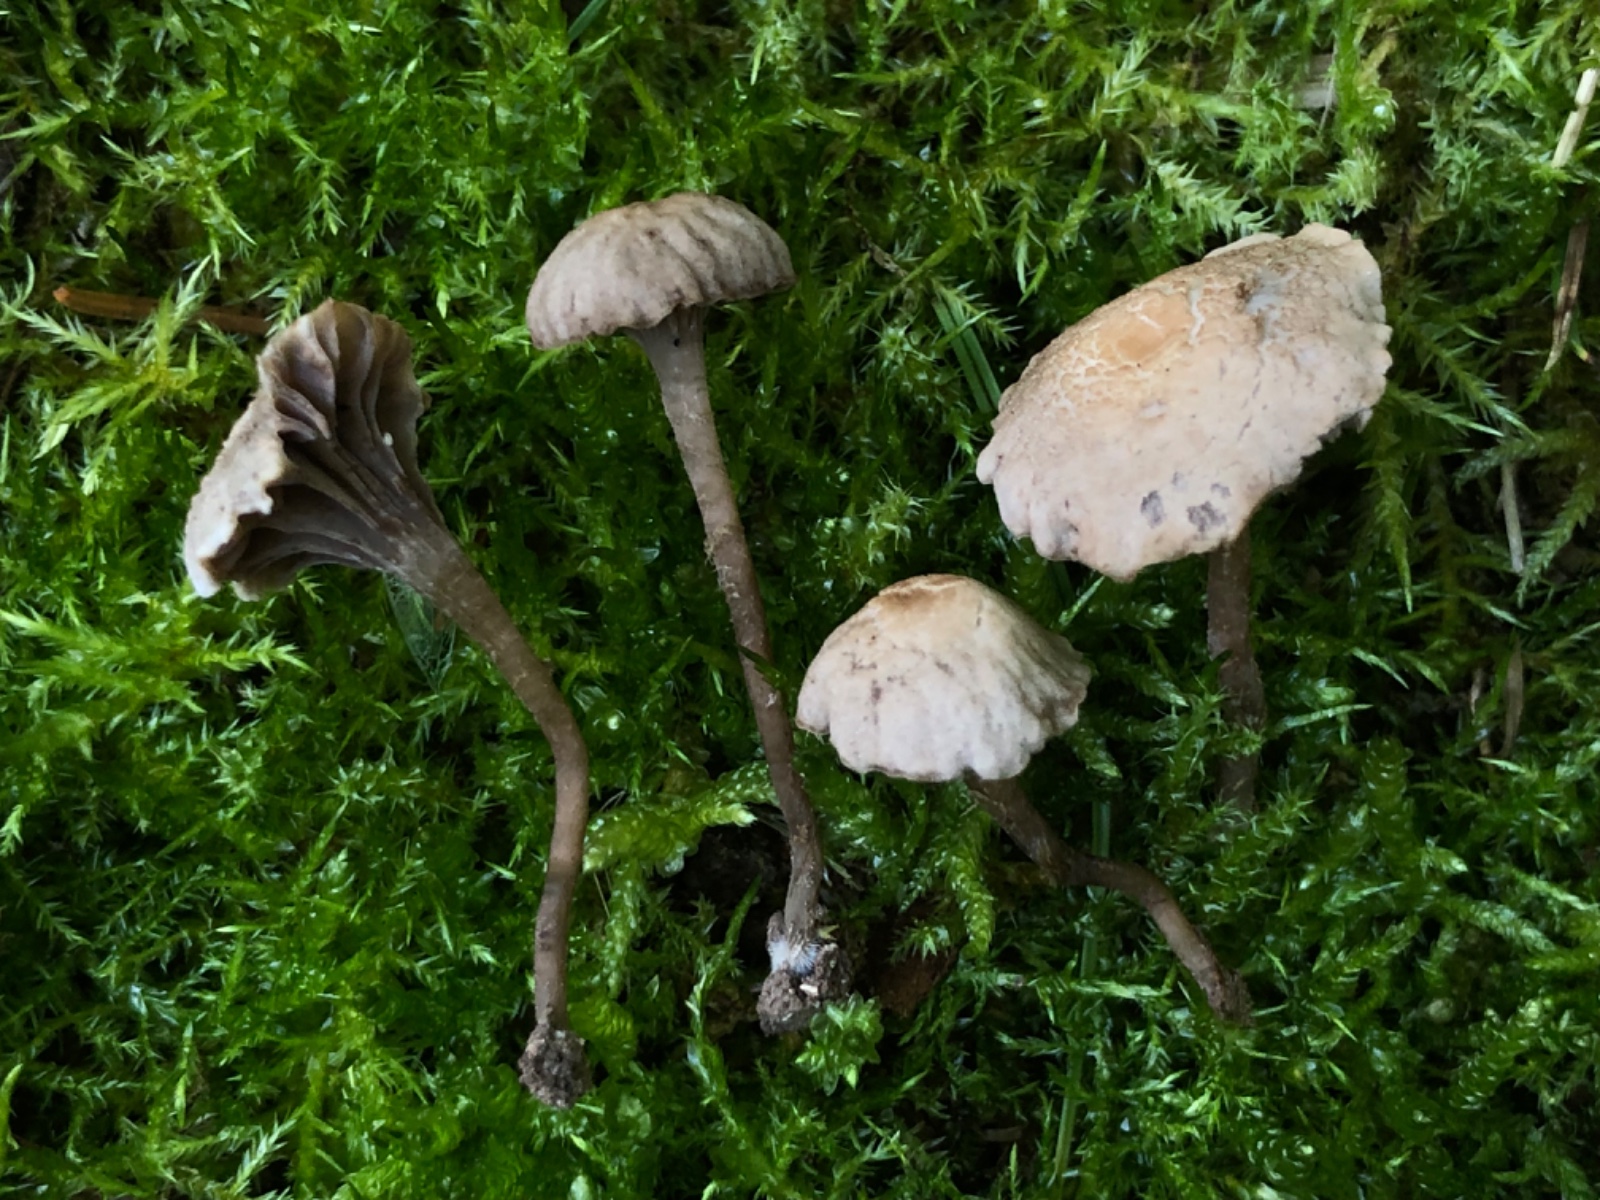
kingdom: Fungi
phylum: Basidiomycota
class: Agaricomycetes
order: Agaricales
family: Clavariaceae
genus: Hodophilus
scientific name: Hodophilus
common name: kratvokshat
